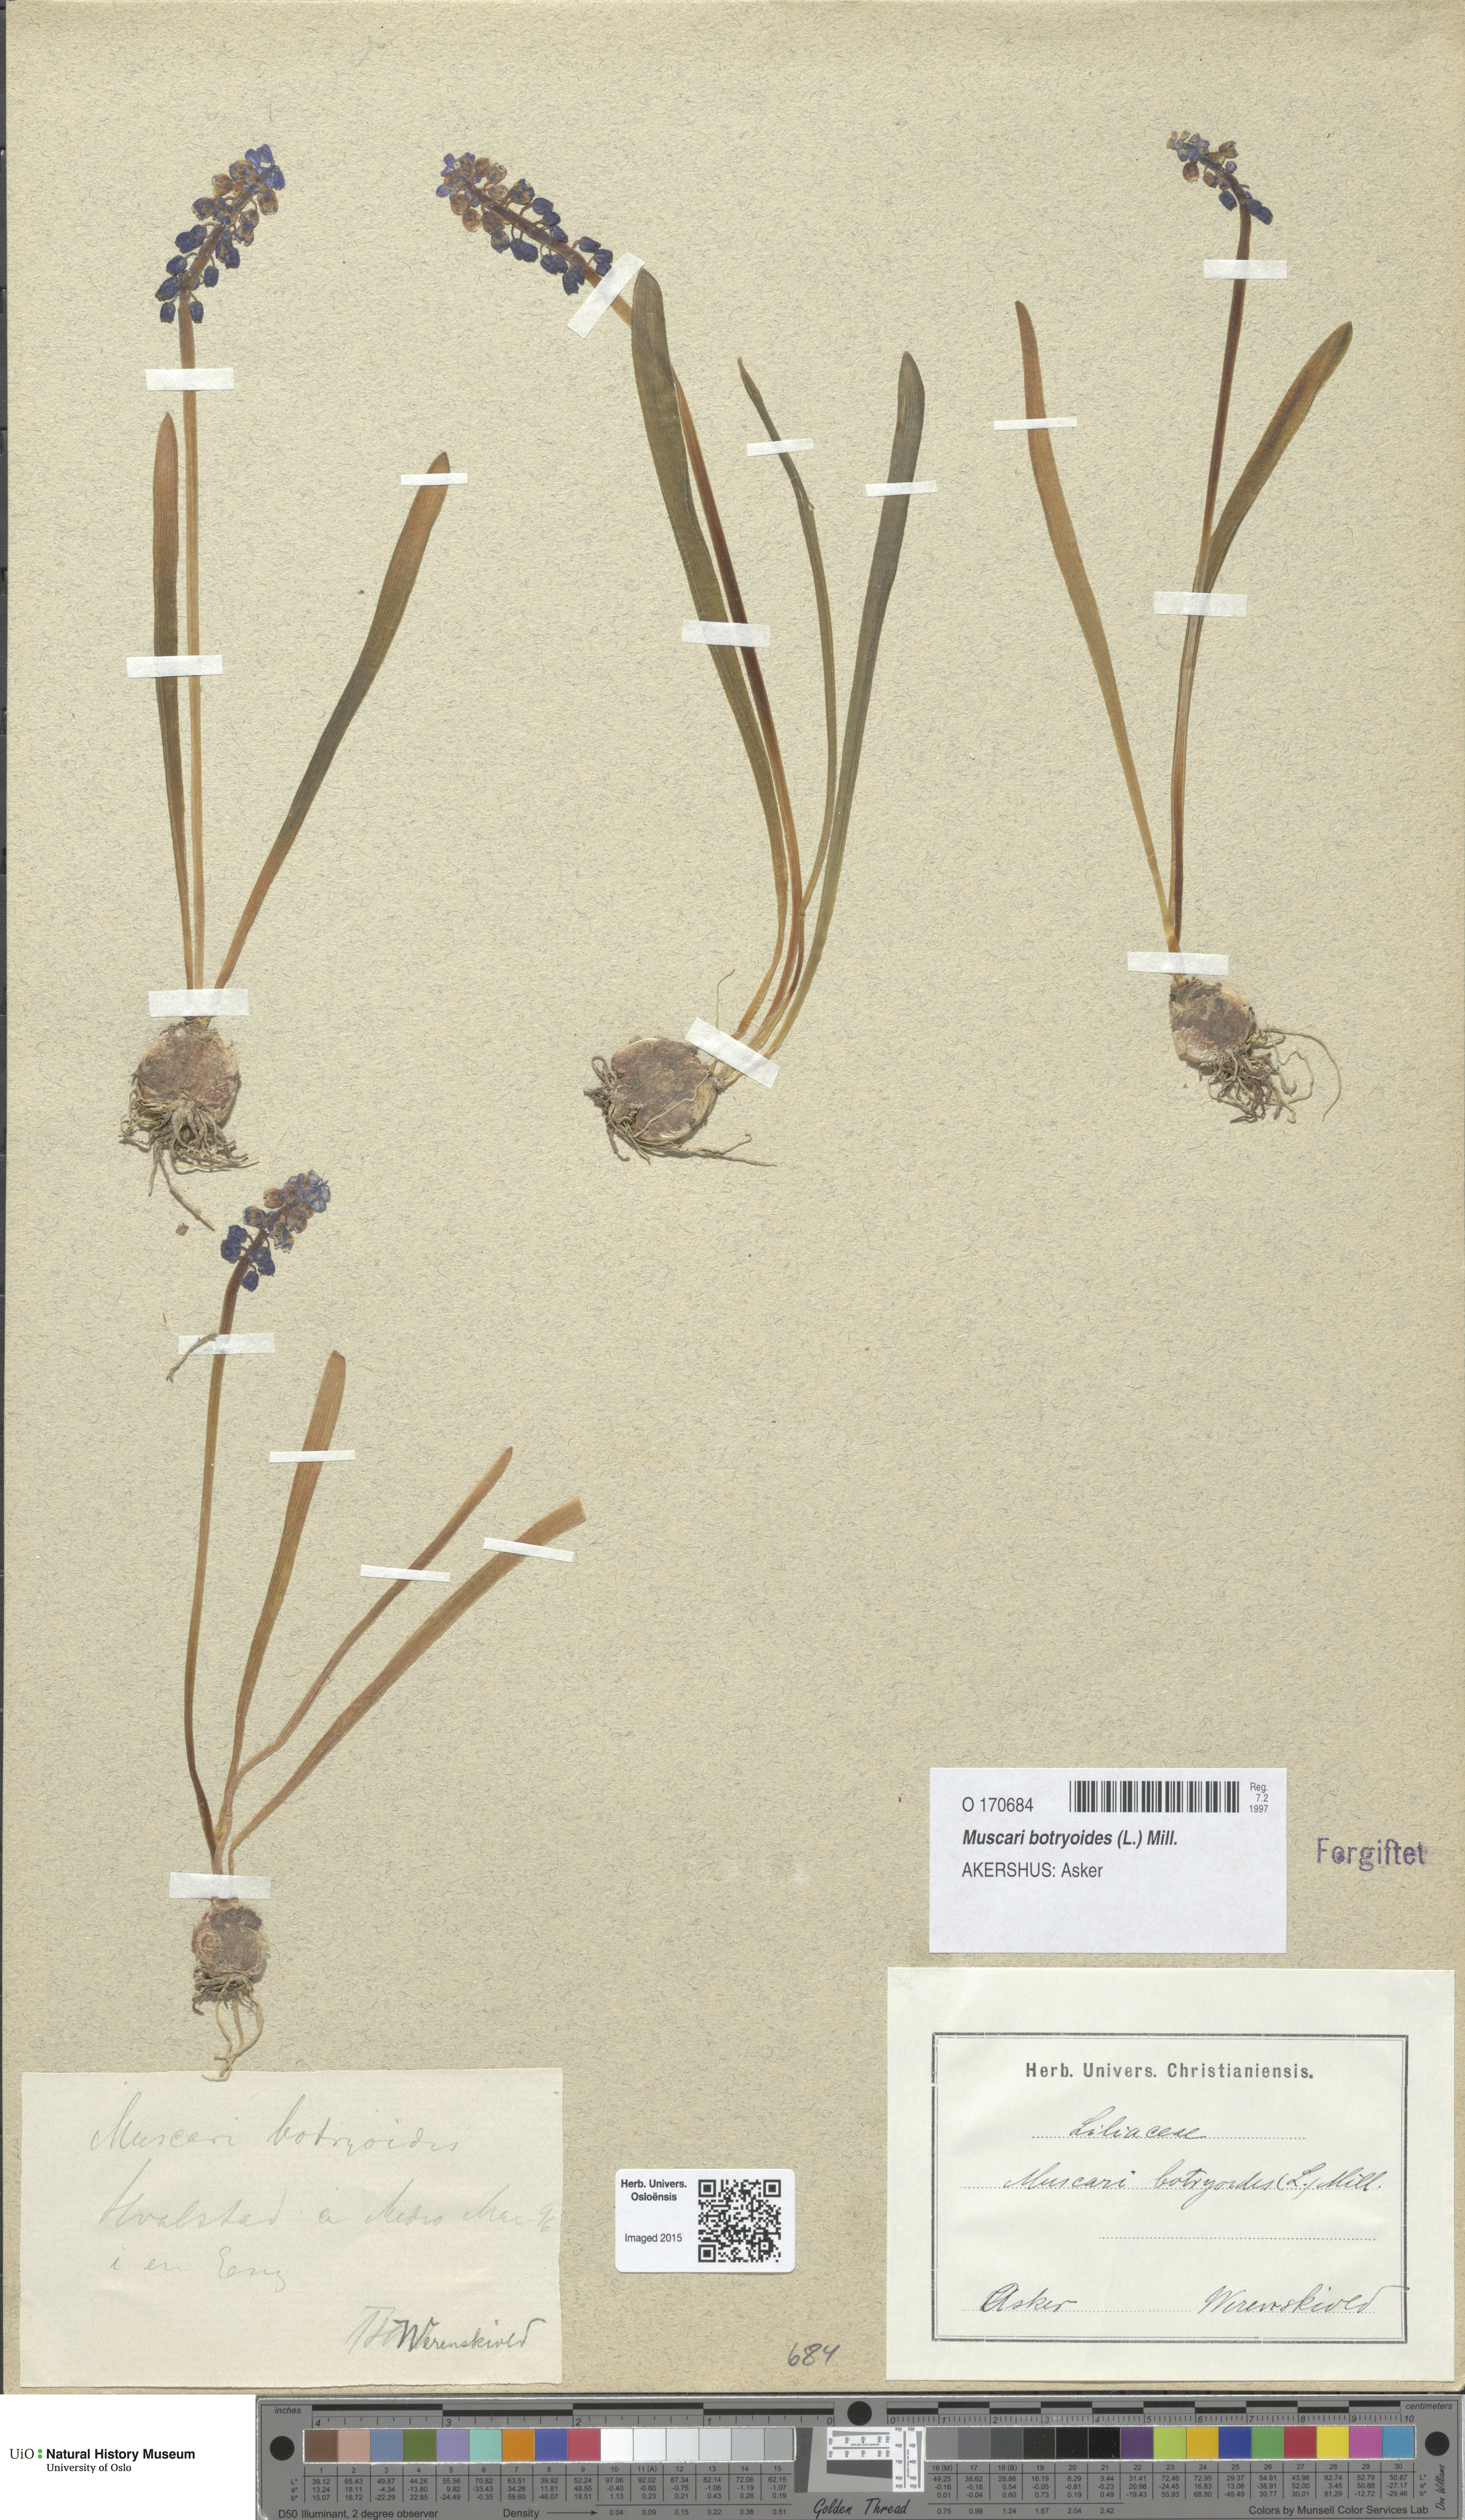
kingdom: Plantae
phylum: Tracheophyta
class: Liliopsida
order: Asparagales
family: Asparagaceae
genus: Muscari
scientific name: Muscari botryoides
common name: Compact grape-hyacinth
